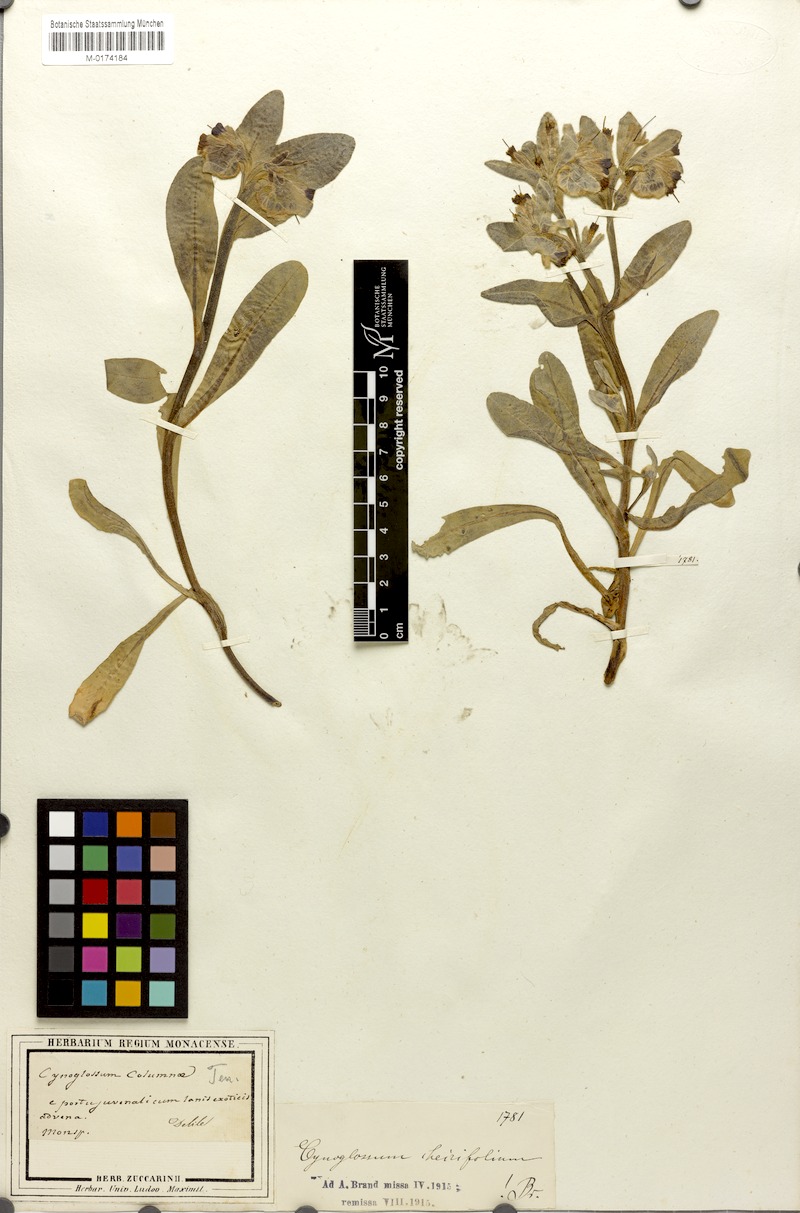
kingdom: Plantae
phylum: Tracheophyta
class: Magnoliopsida
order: Boraginales
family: Boraginaceae
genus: Pardoglossum
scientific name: Pardoglossum cheirifolium
